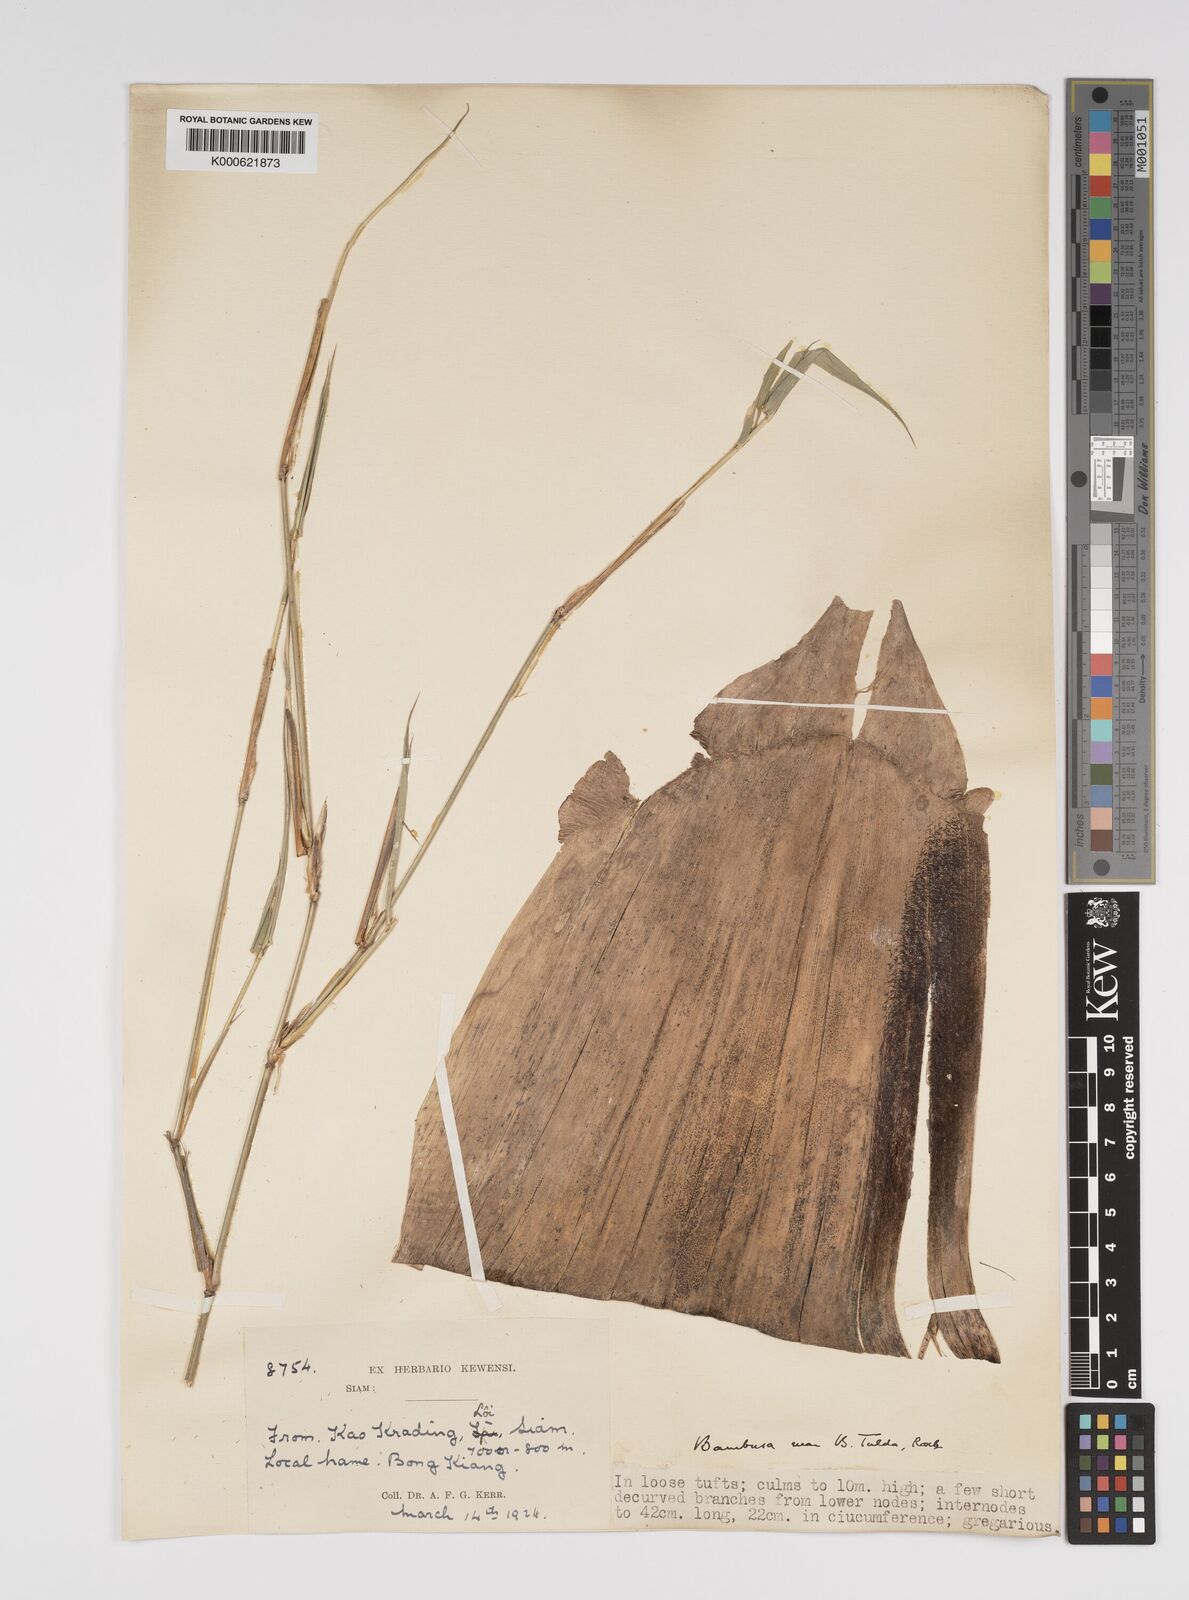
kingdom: Plantae
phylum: Tracheophyta
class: Liliopsida
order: Poales
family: Poaceae
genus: Bambusa
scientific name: Bambusa tulda
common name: Bengal bamboo
